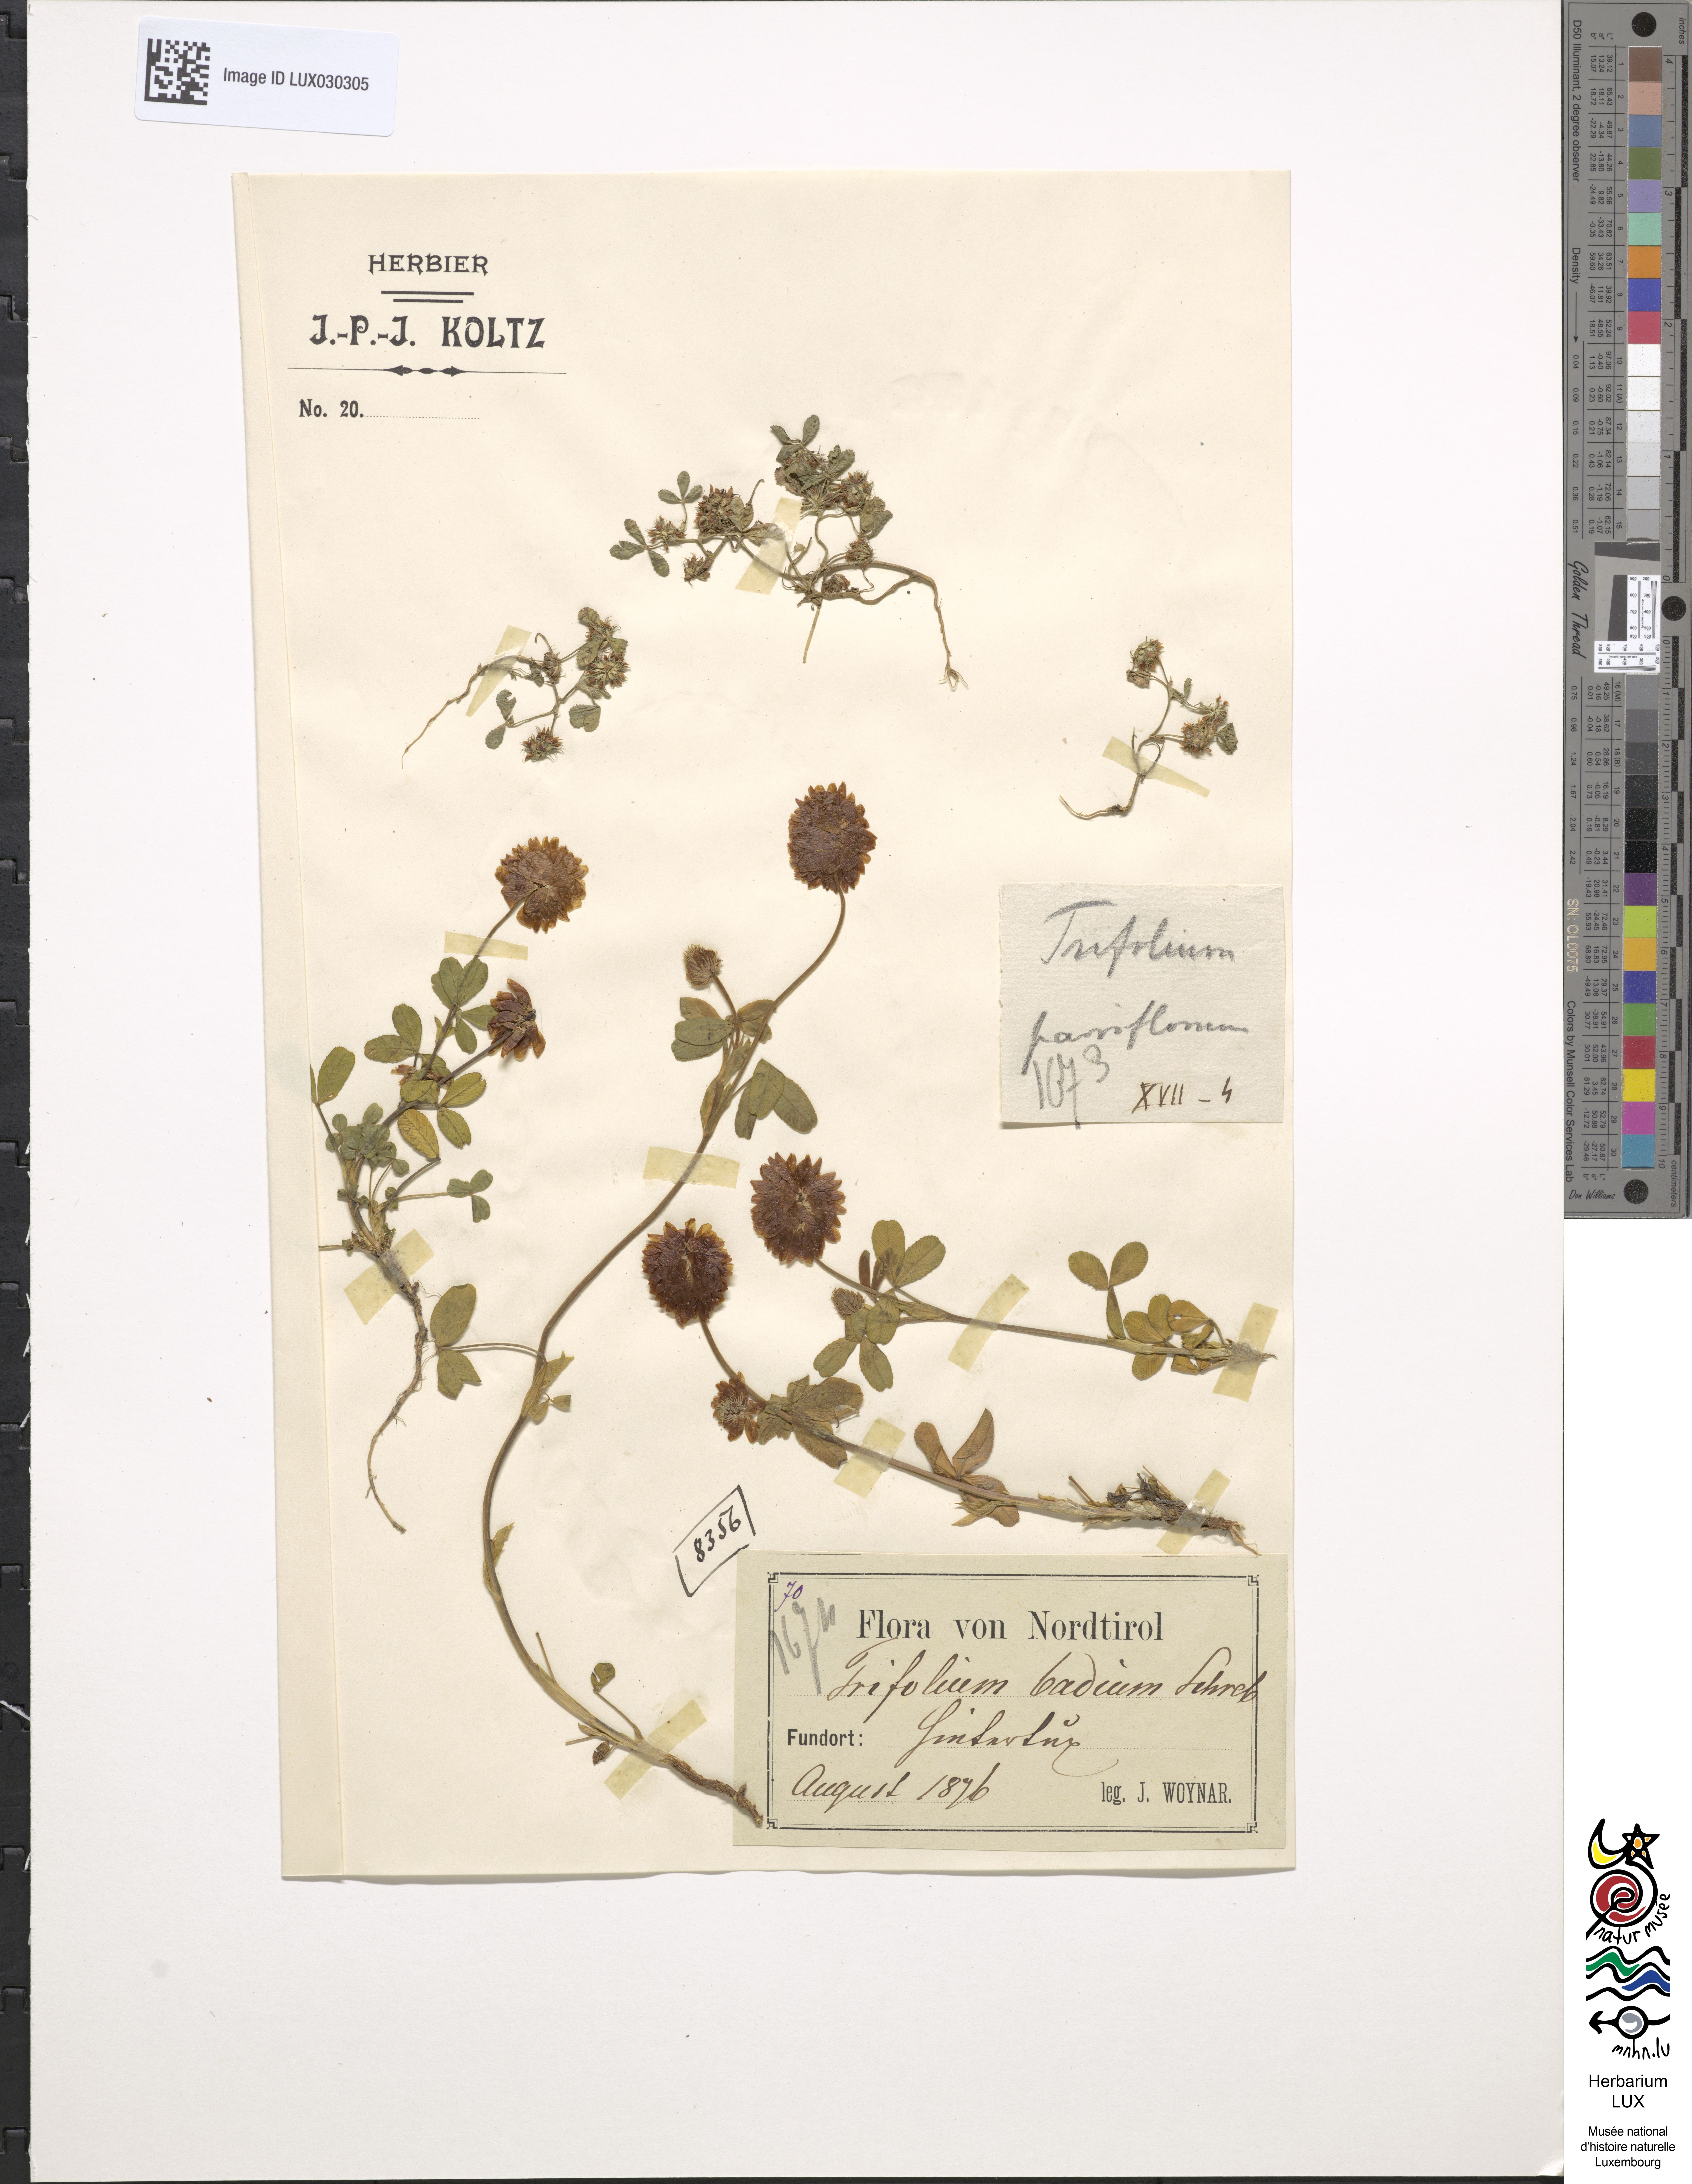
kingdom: Plantae
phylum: Tracheophyta
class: Magnoliopsida
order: Fabales
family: Fabaceae
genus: Trifolium
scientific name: Trifolium badium
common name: Brown clover
